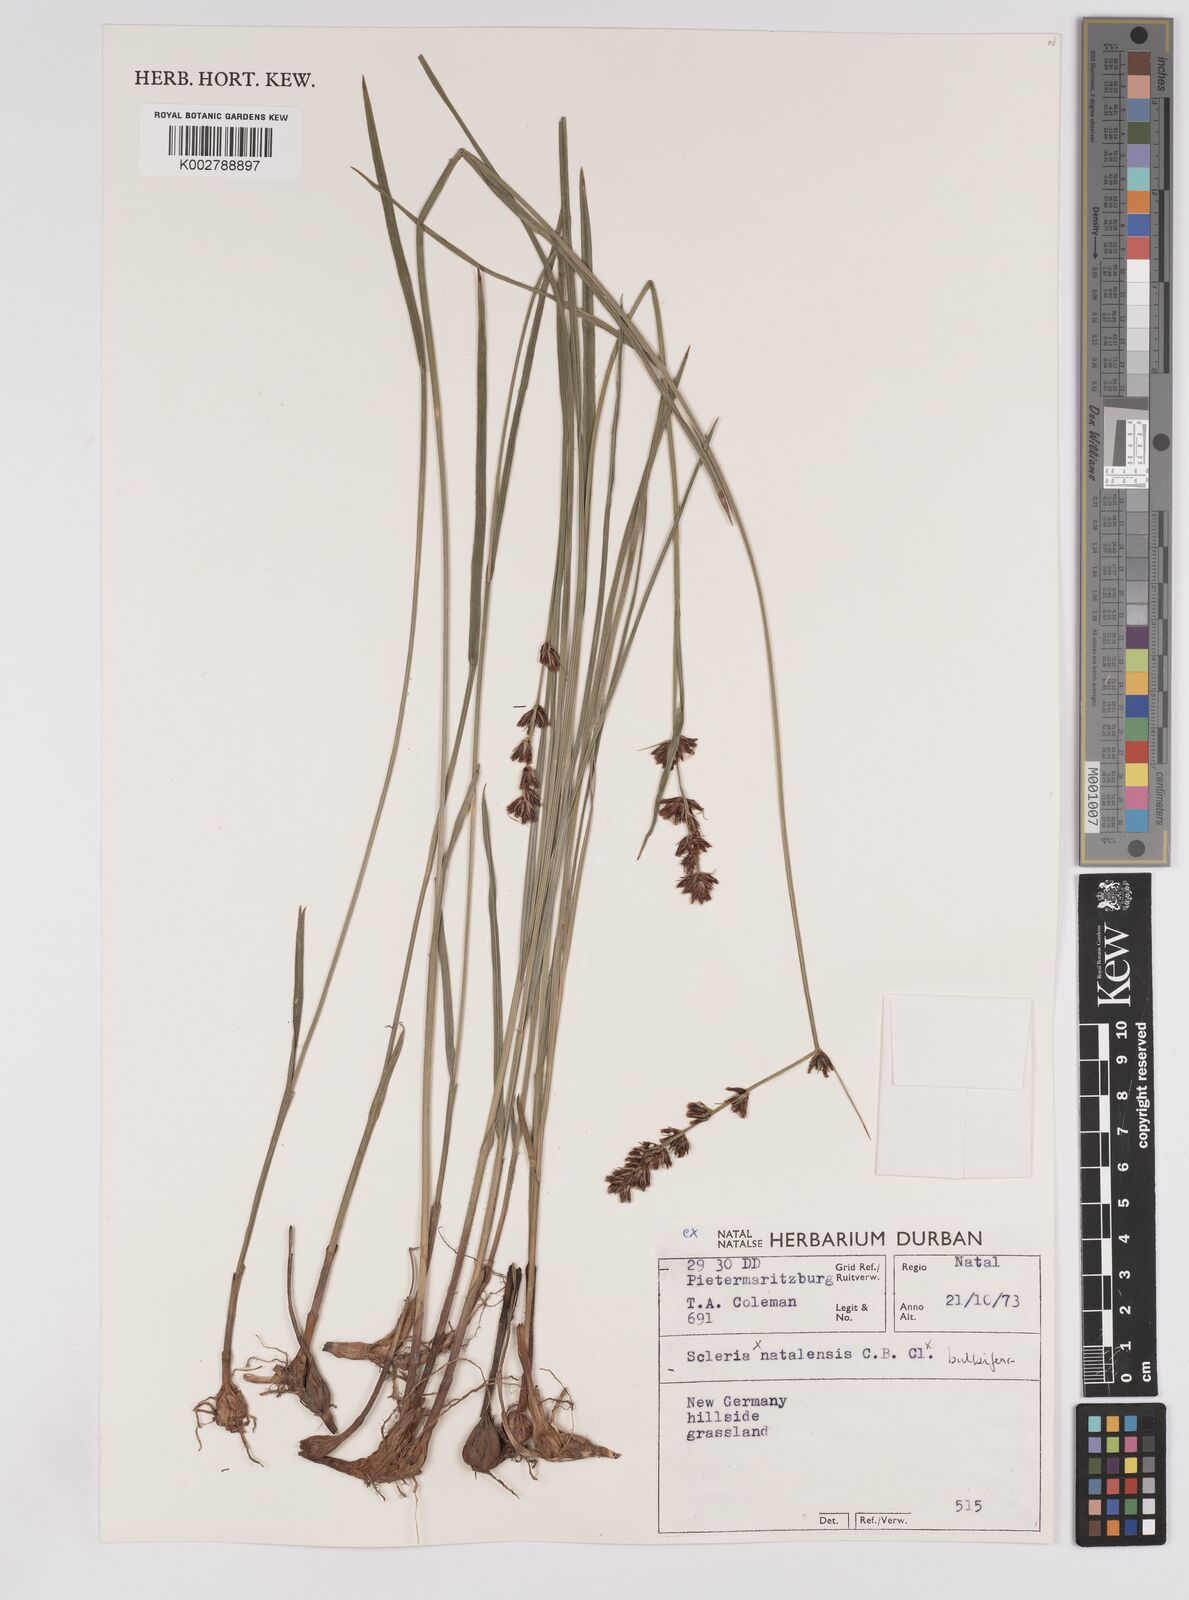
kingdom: Plantae
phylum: Tracheophyta
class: Liliopsida
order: Poales
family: Cyperaceae
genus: Scleria
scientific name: Scleria bulbifera
